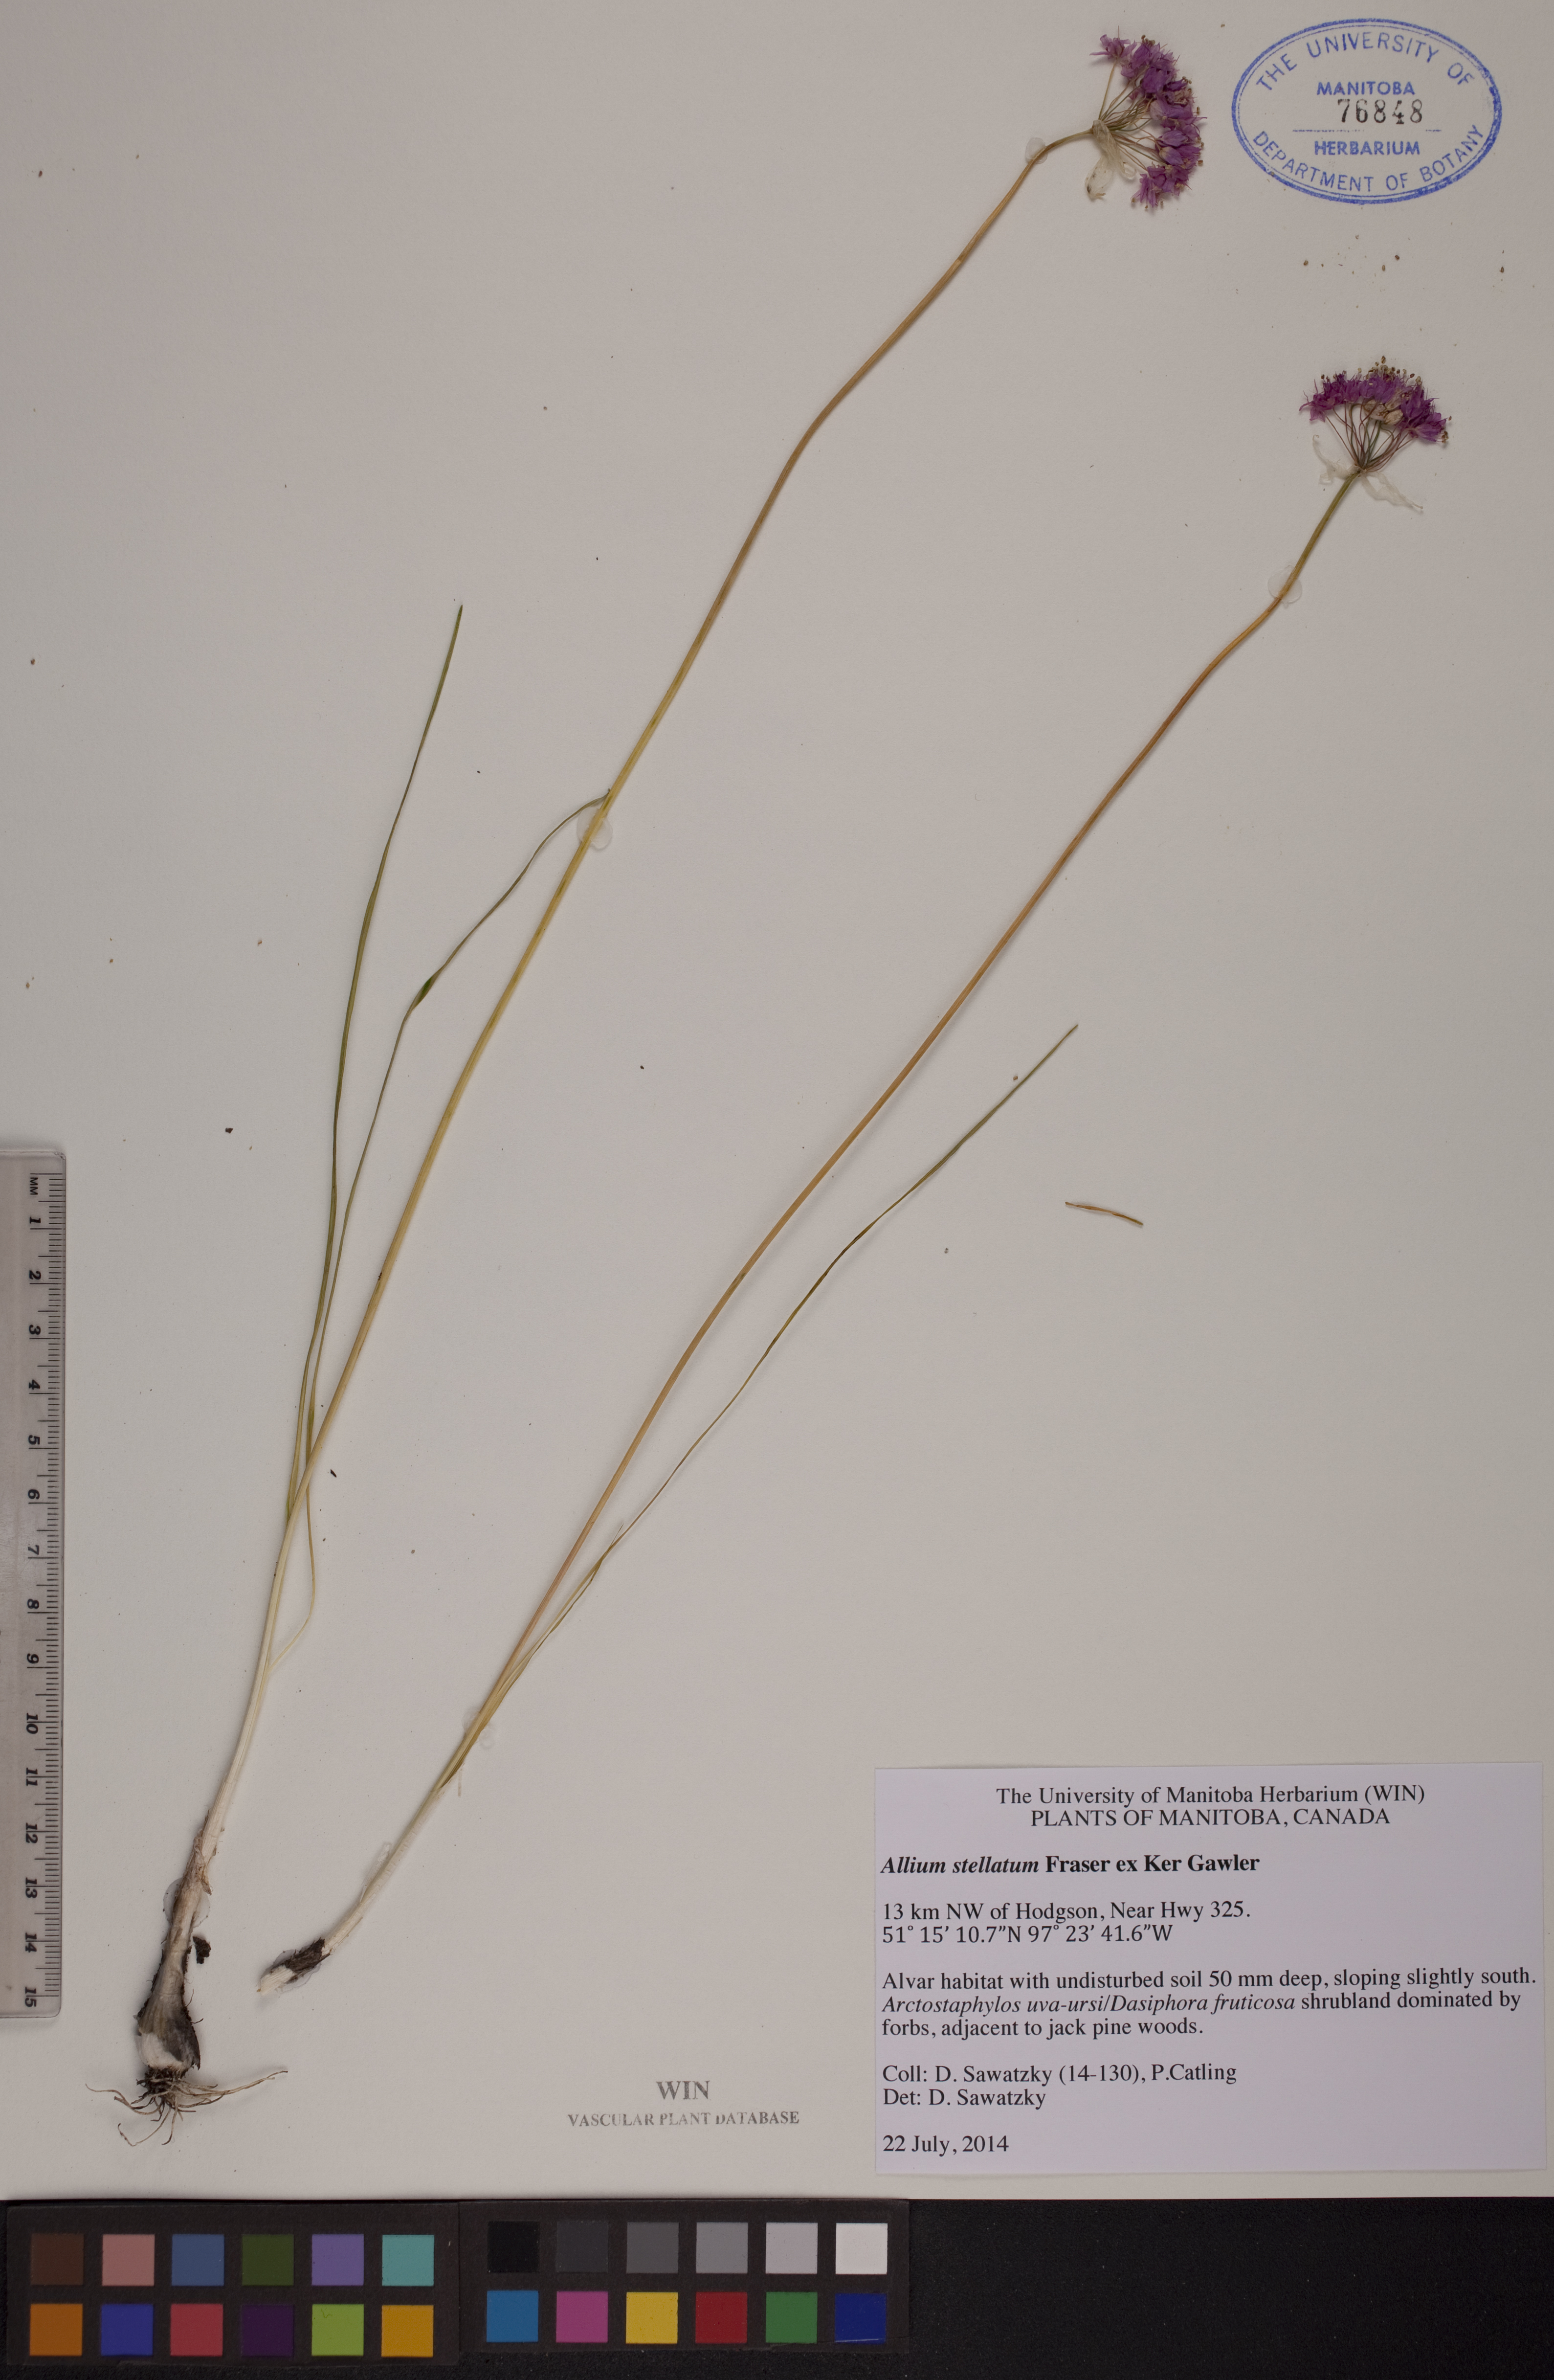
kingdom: Plantae
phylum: Tracheophyta
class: Liliopsida
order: Asparagales
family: Amaryllidaceae
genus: Allium
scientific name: Allium stellatum
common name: Autumn onion
